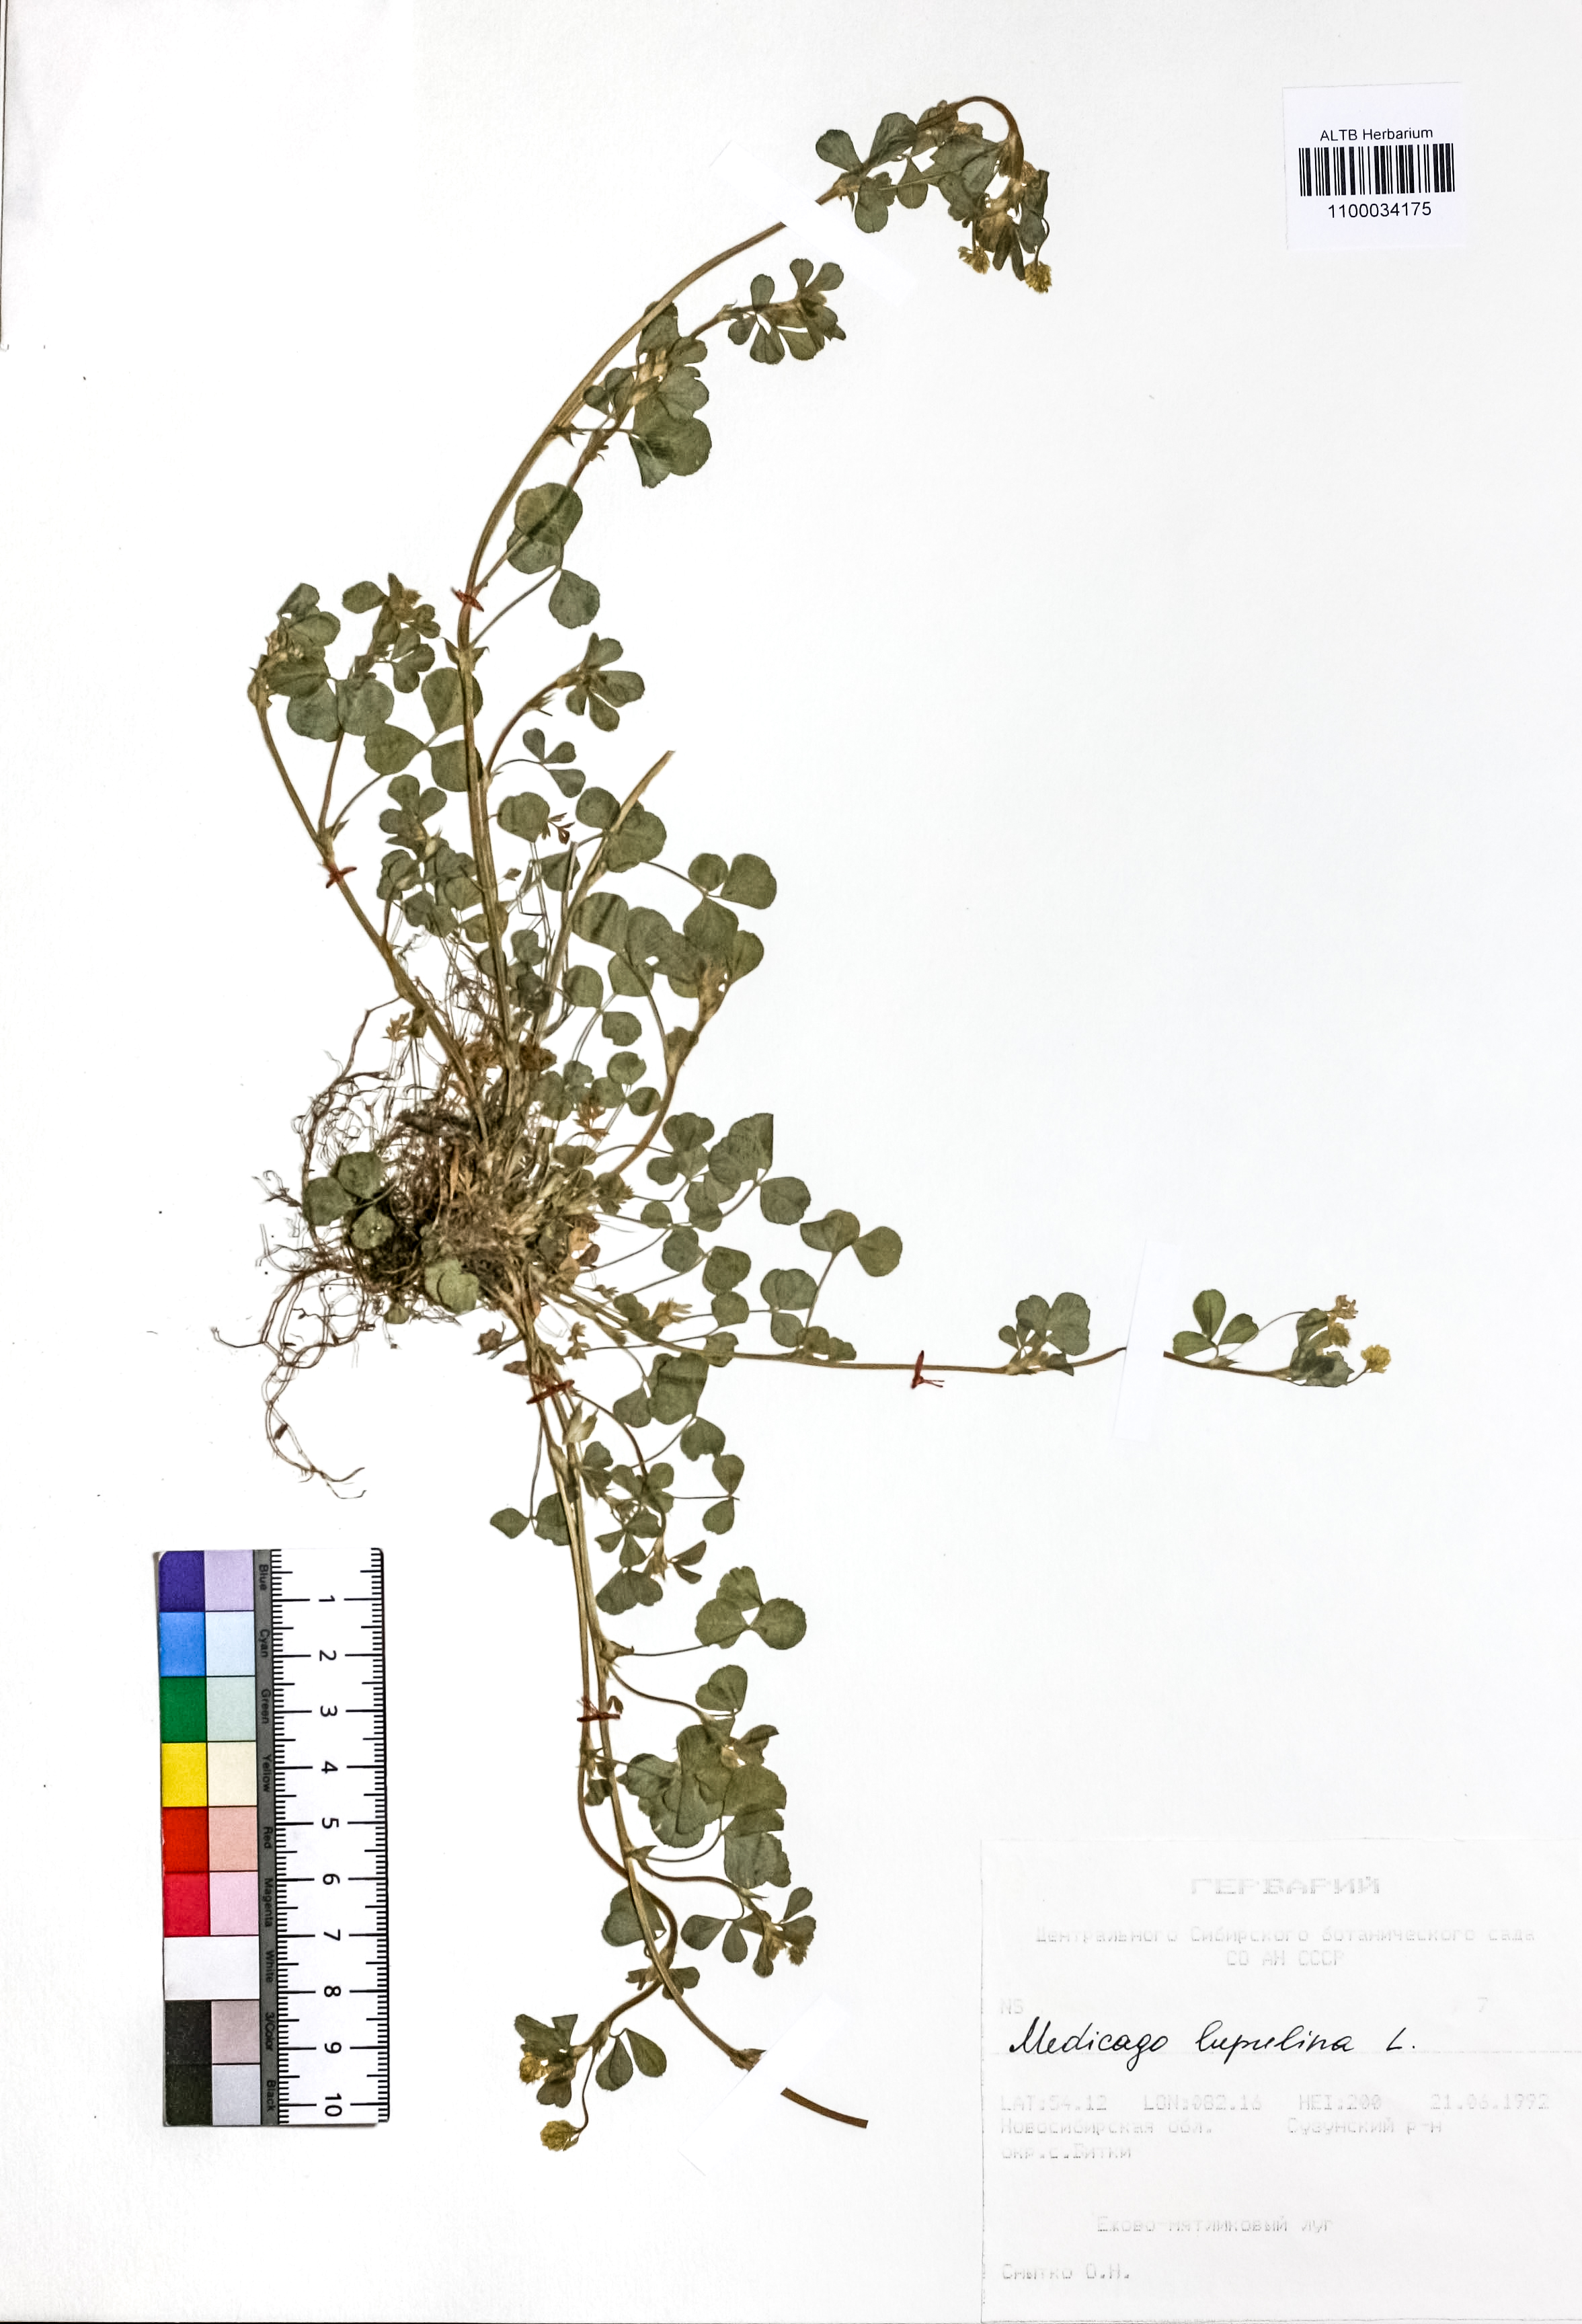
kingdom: Plantae
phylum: Tracheophyta
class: Magnoliopsida
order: Fabales
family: Fabaceae
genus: Medicago
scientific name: Medicago lupulina
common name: Black medick
